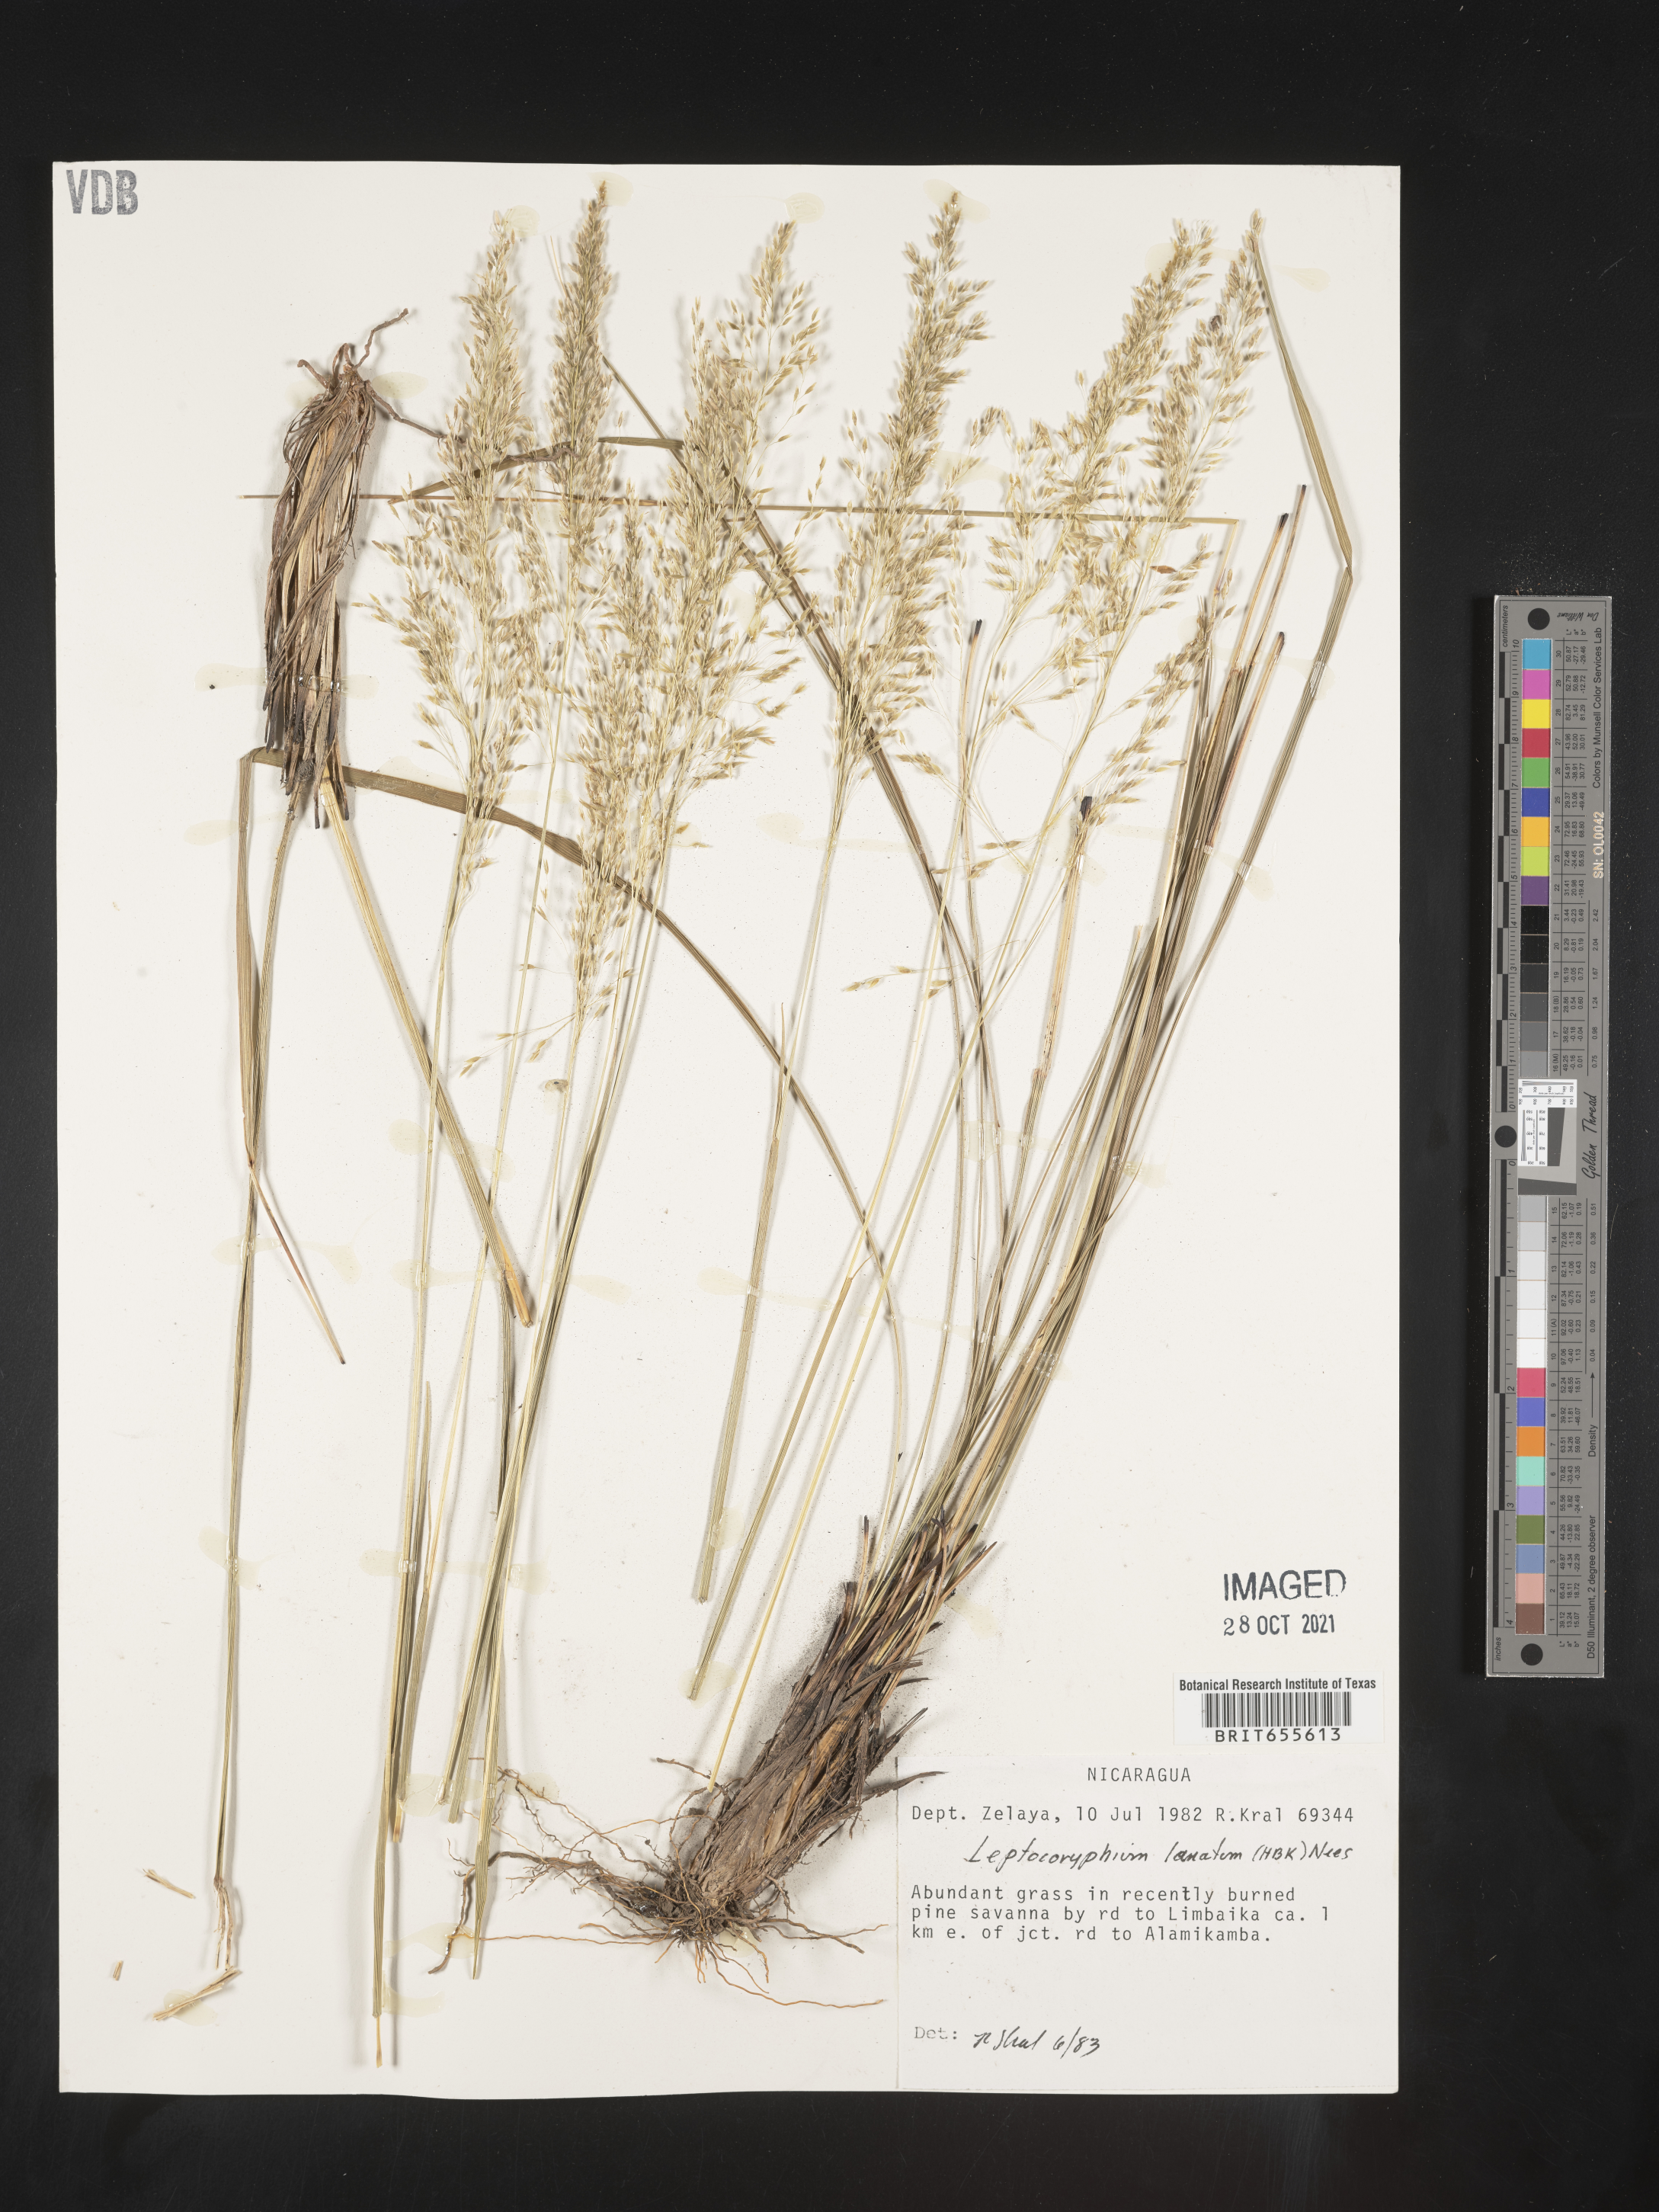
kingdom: Plantae
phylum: Tracheophyta
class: Liliopsida
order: Poales
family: Poaceae
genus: Anthenantia
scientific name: Anthenantia
